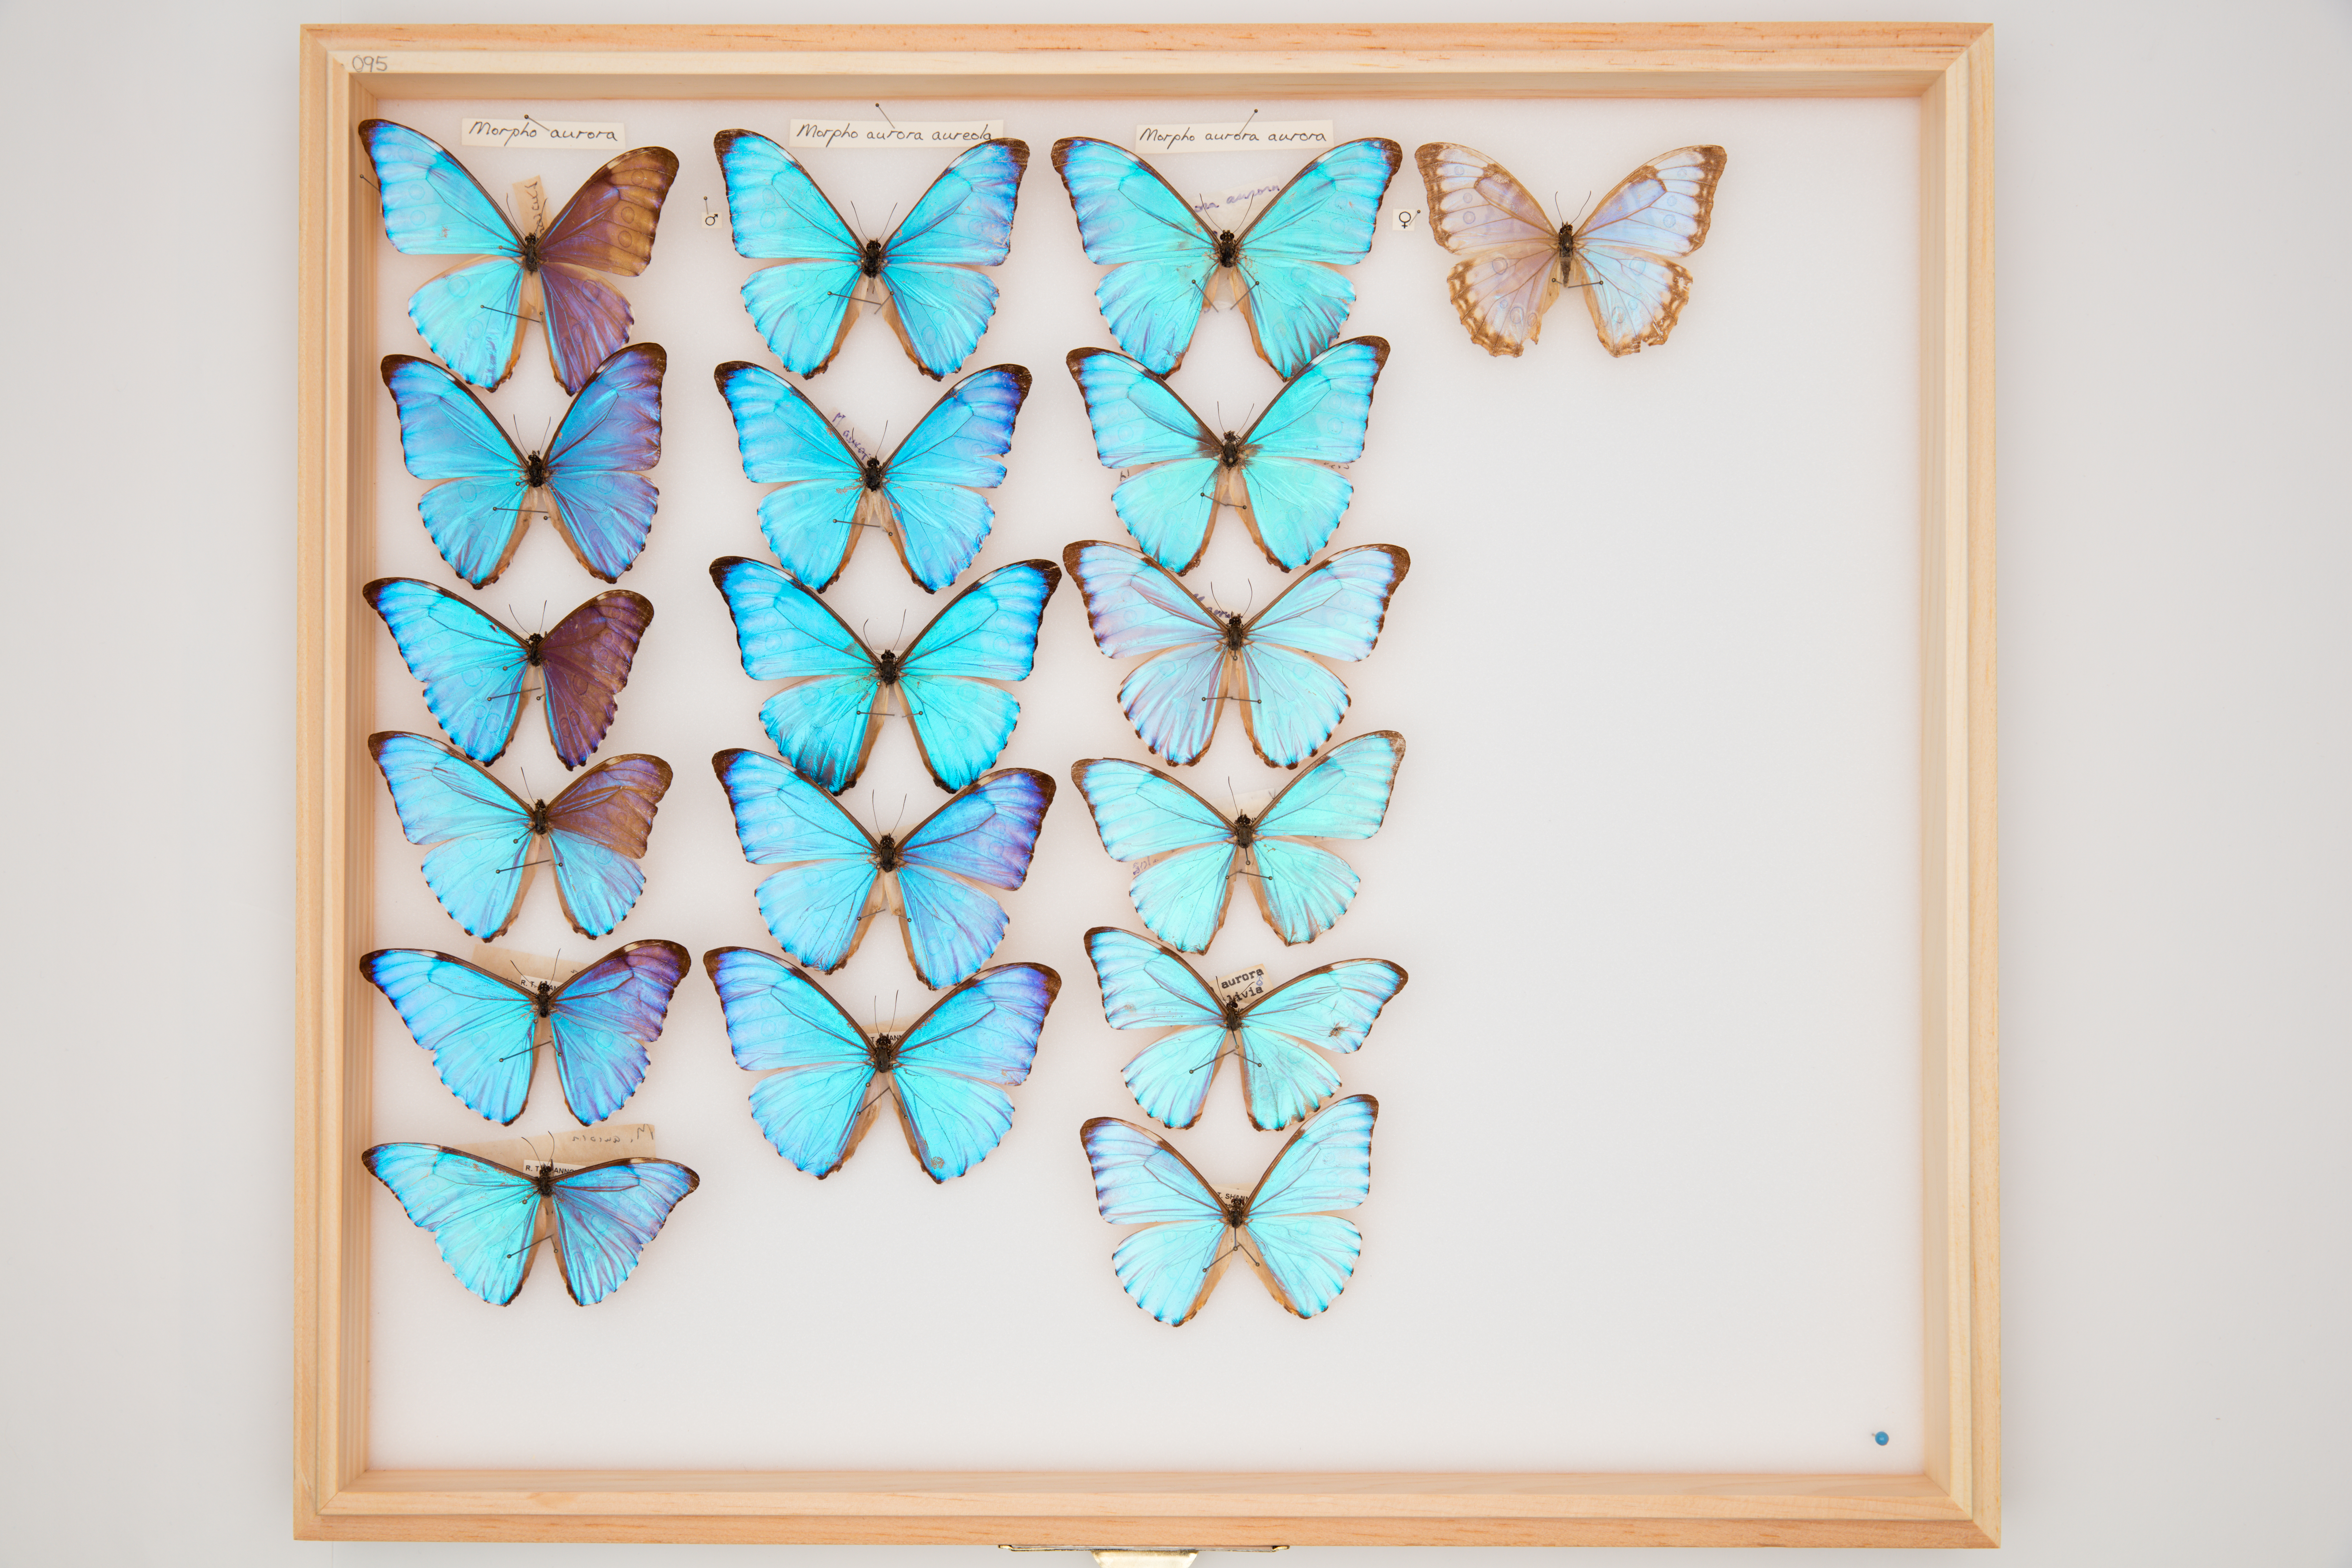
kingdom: Animalia
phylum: Arthropoda
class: Insecta
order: Lepidoptera
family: Nymphalidae
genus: Morpho
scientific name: Morpho aurora
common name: Aurora morpho
